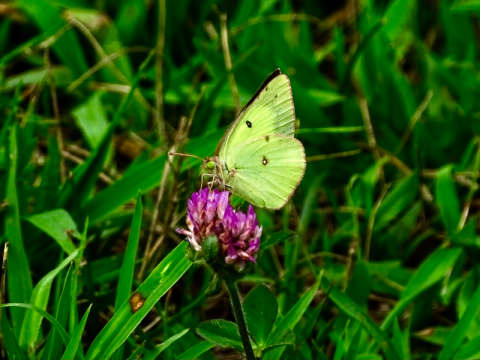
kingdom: Animalia
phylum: Arthropoda
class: Insecta
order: Lepidoptera
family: Pieridae
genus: Colias
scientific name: Colias philodice
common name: Clouded Sulphur
